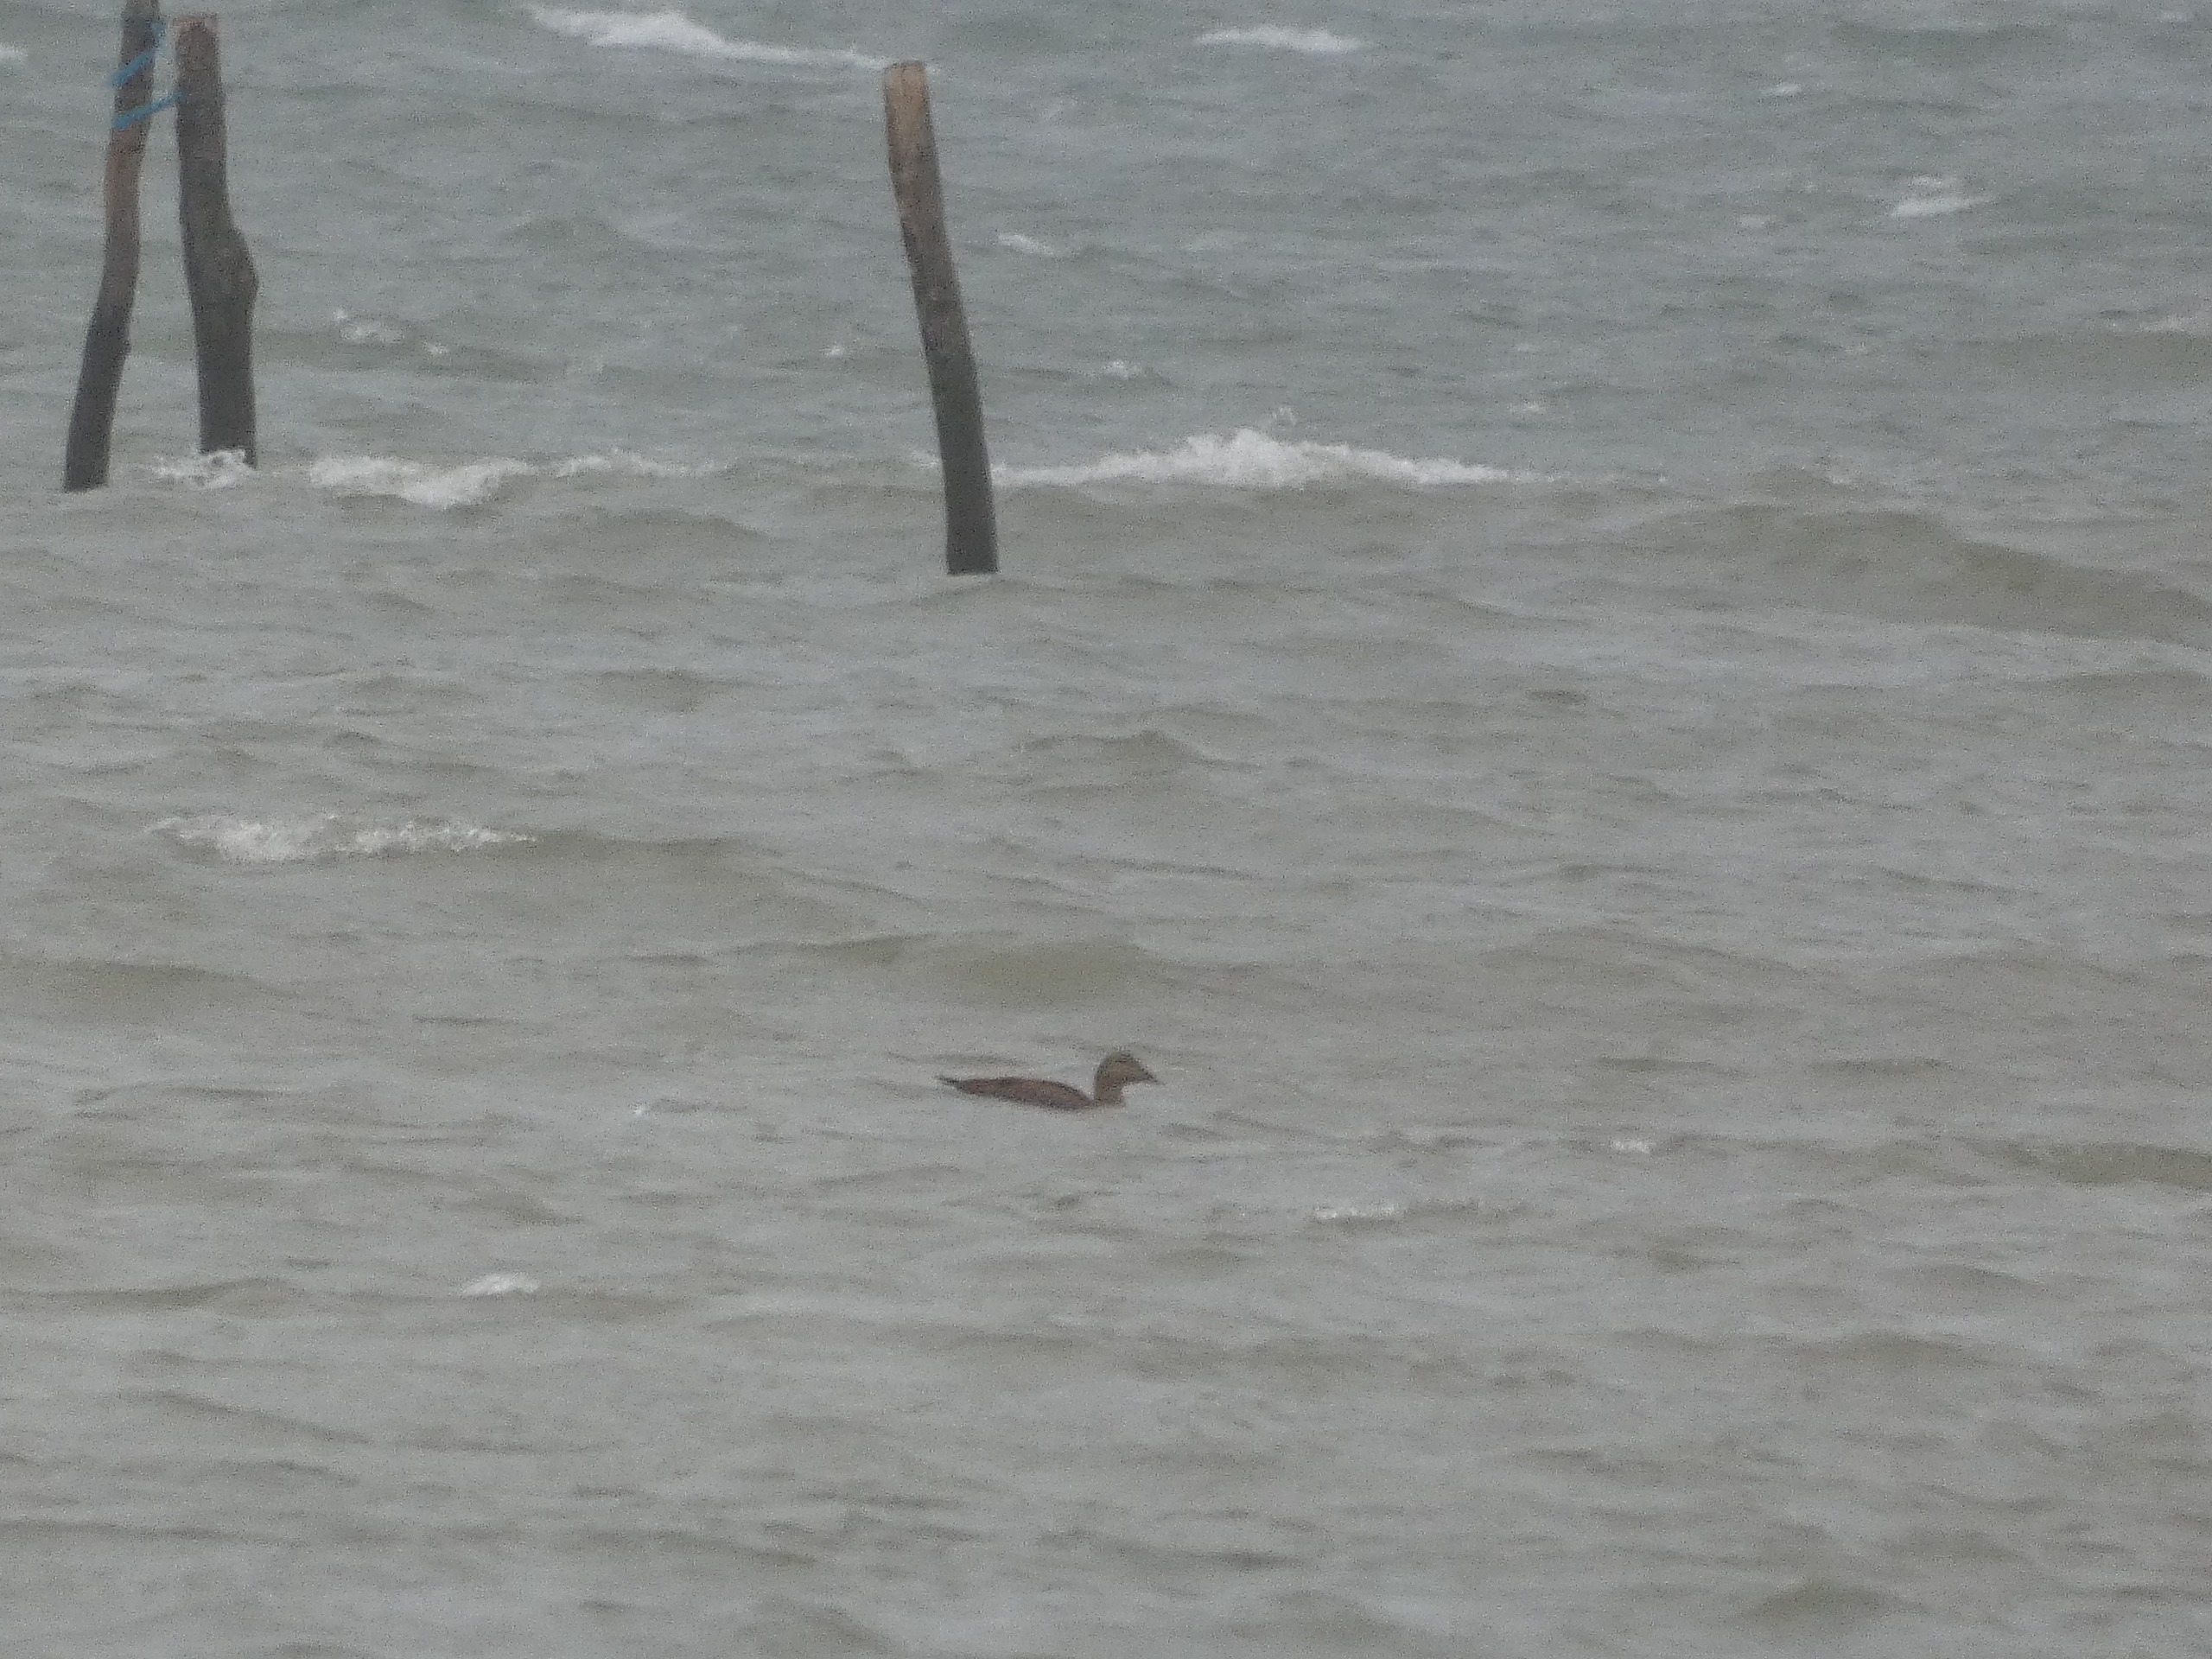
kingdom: Animalia
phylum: Chordata
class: Aves
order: Anseriformes
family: Anatidae
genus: Somateria
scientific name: Somateria mollissima
